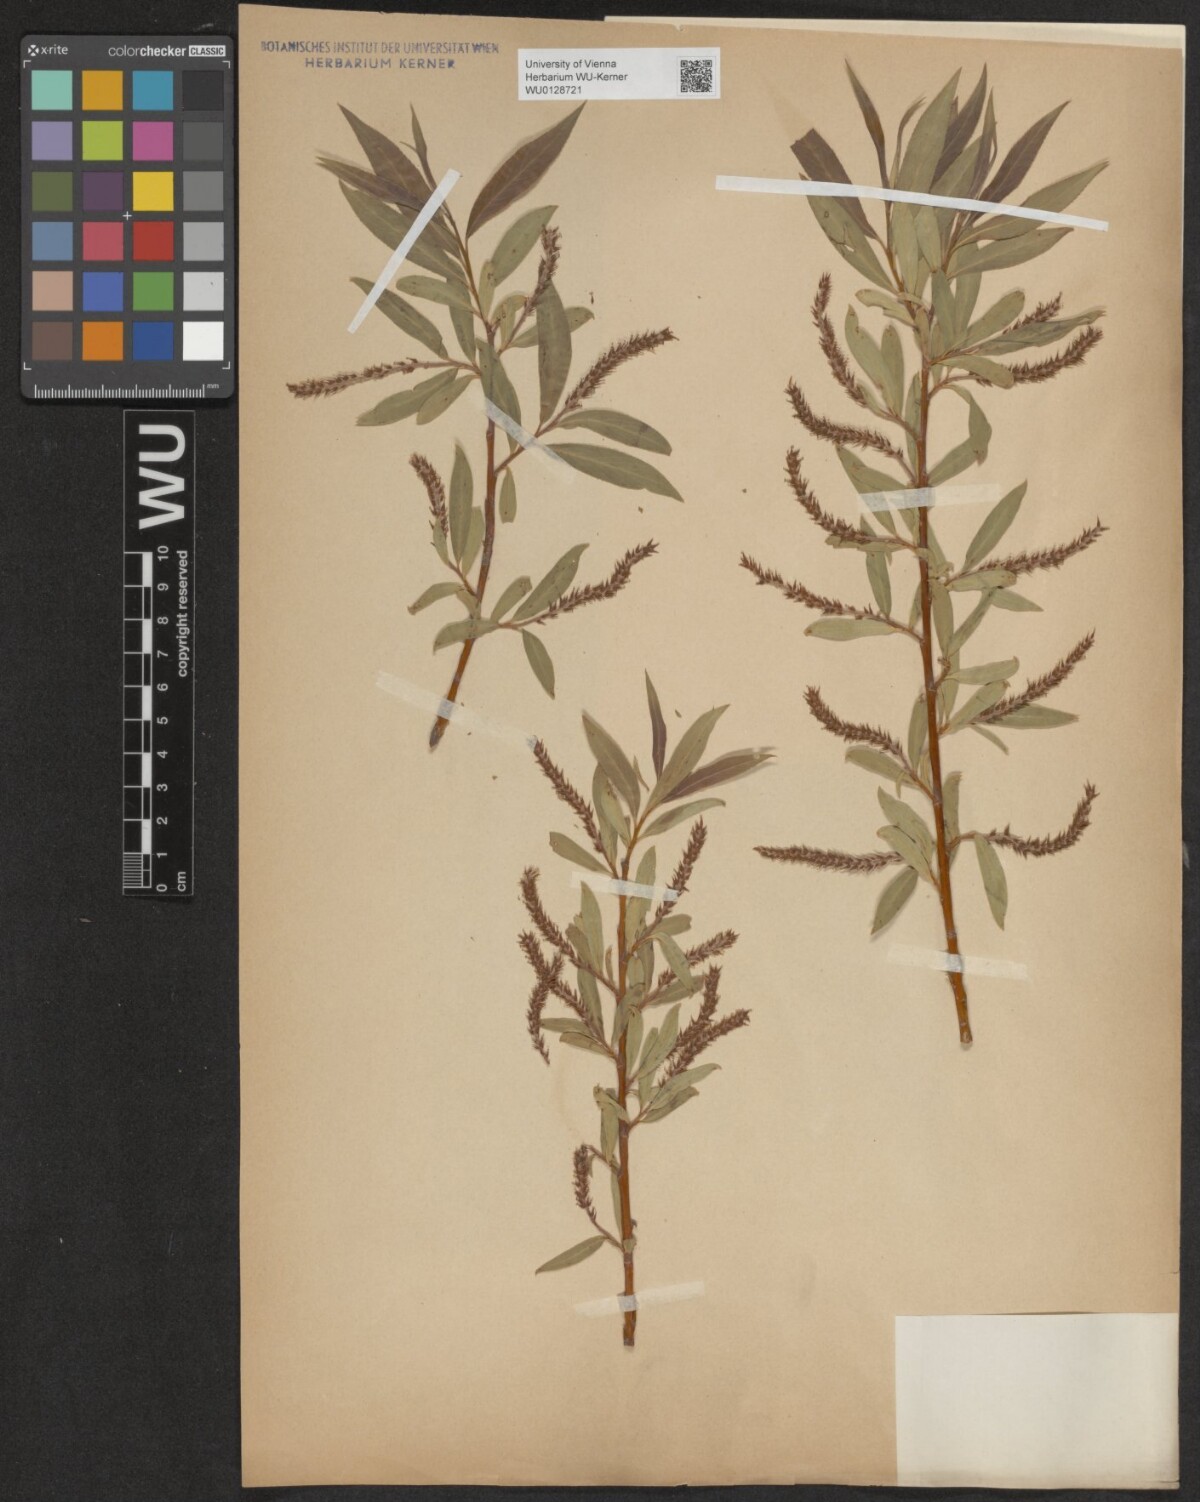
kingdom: Plantae
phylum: Tracheophyta
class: Magnoliopsida
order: Malpighiales
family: Salicaceae
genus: Salix
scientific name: Salix alba
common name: White willow
